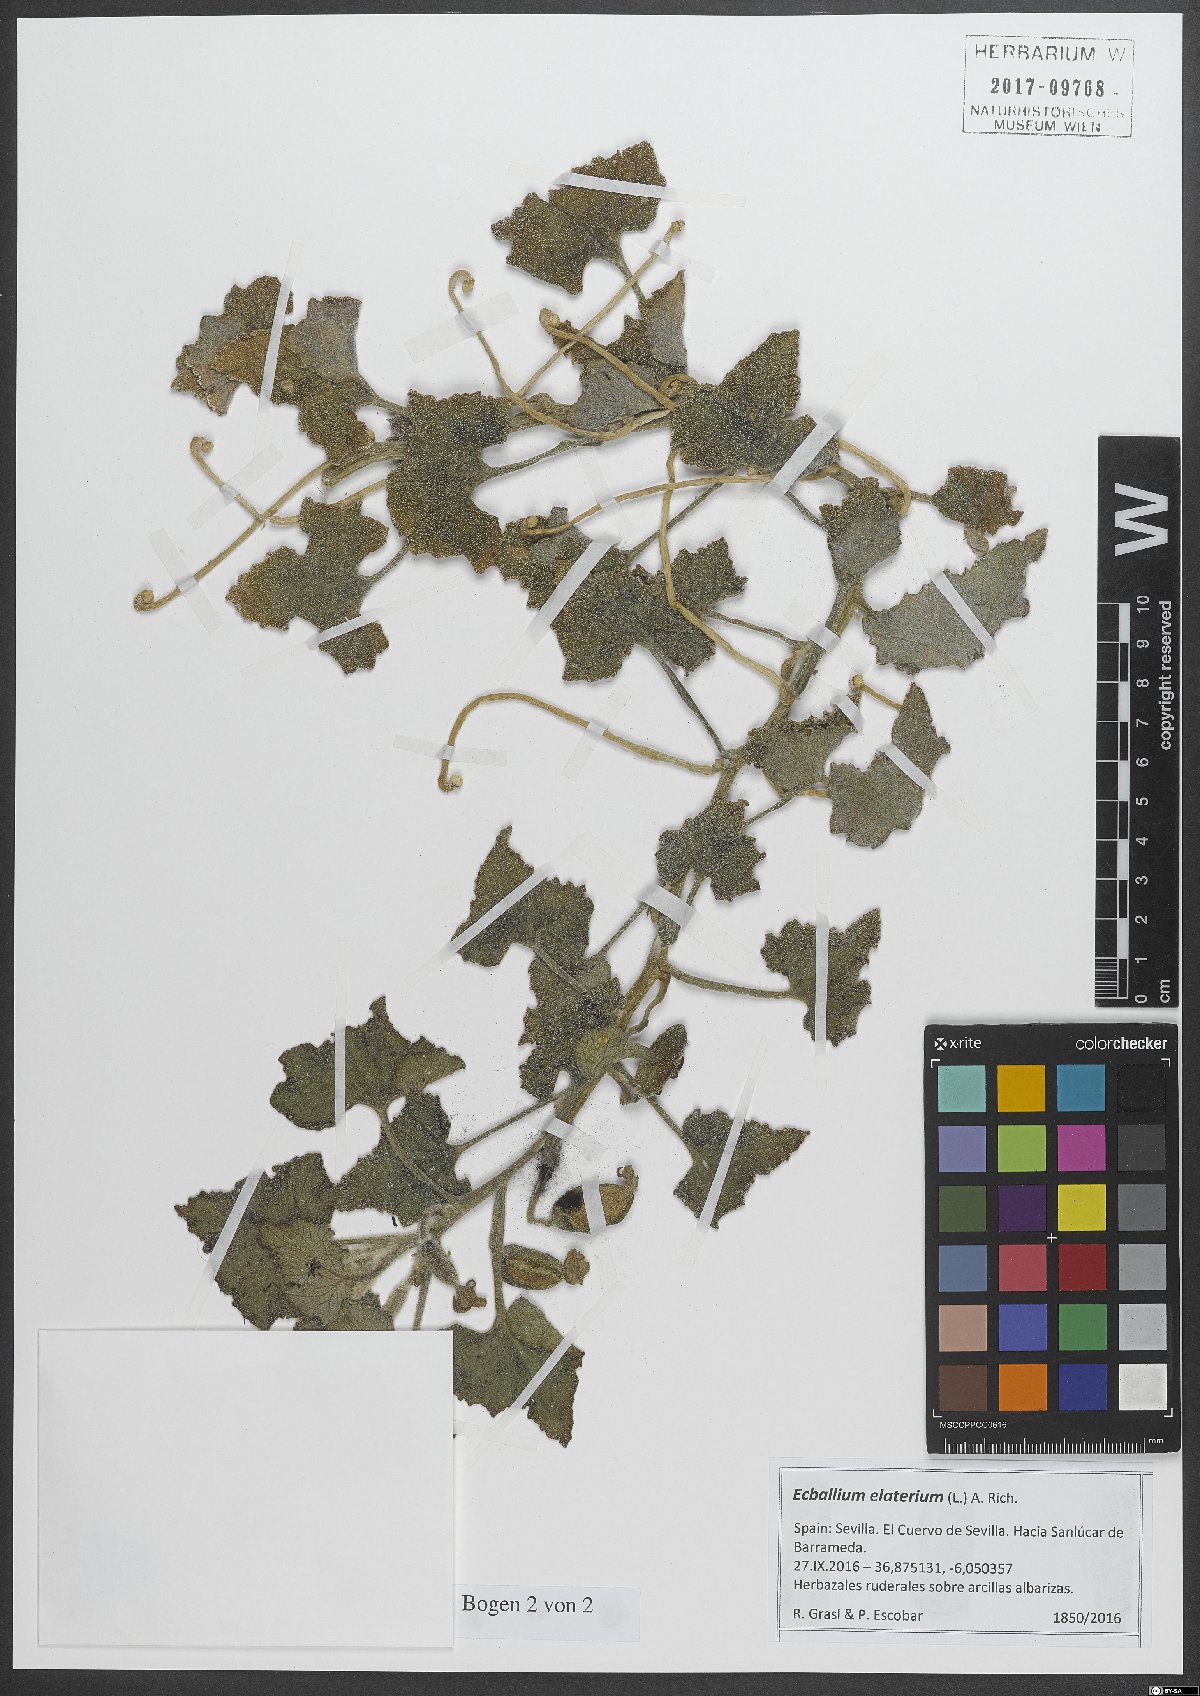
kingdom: Plantae
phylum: Tracheophyta
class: Magnoliopsida
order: Cucurbitales
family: Cucurbitaceae
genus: Ecballium
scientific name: Ecballium elaterium
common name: Squirting cucumber
